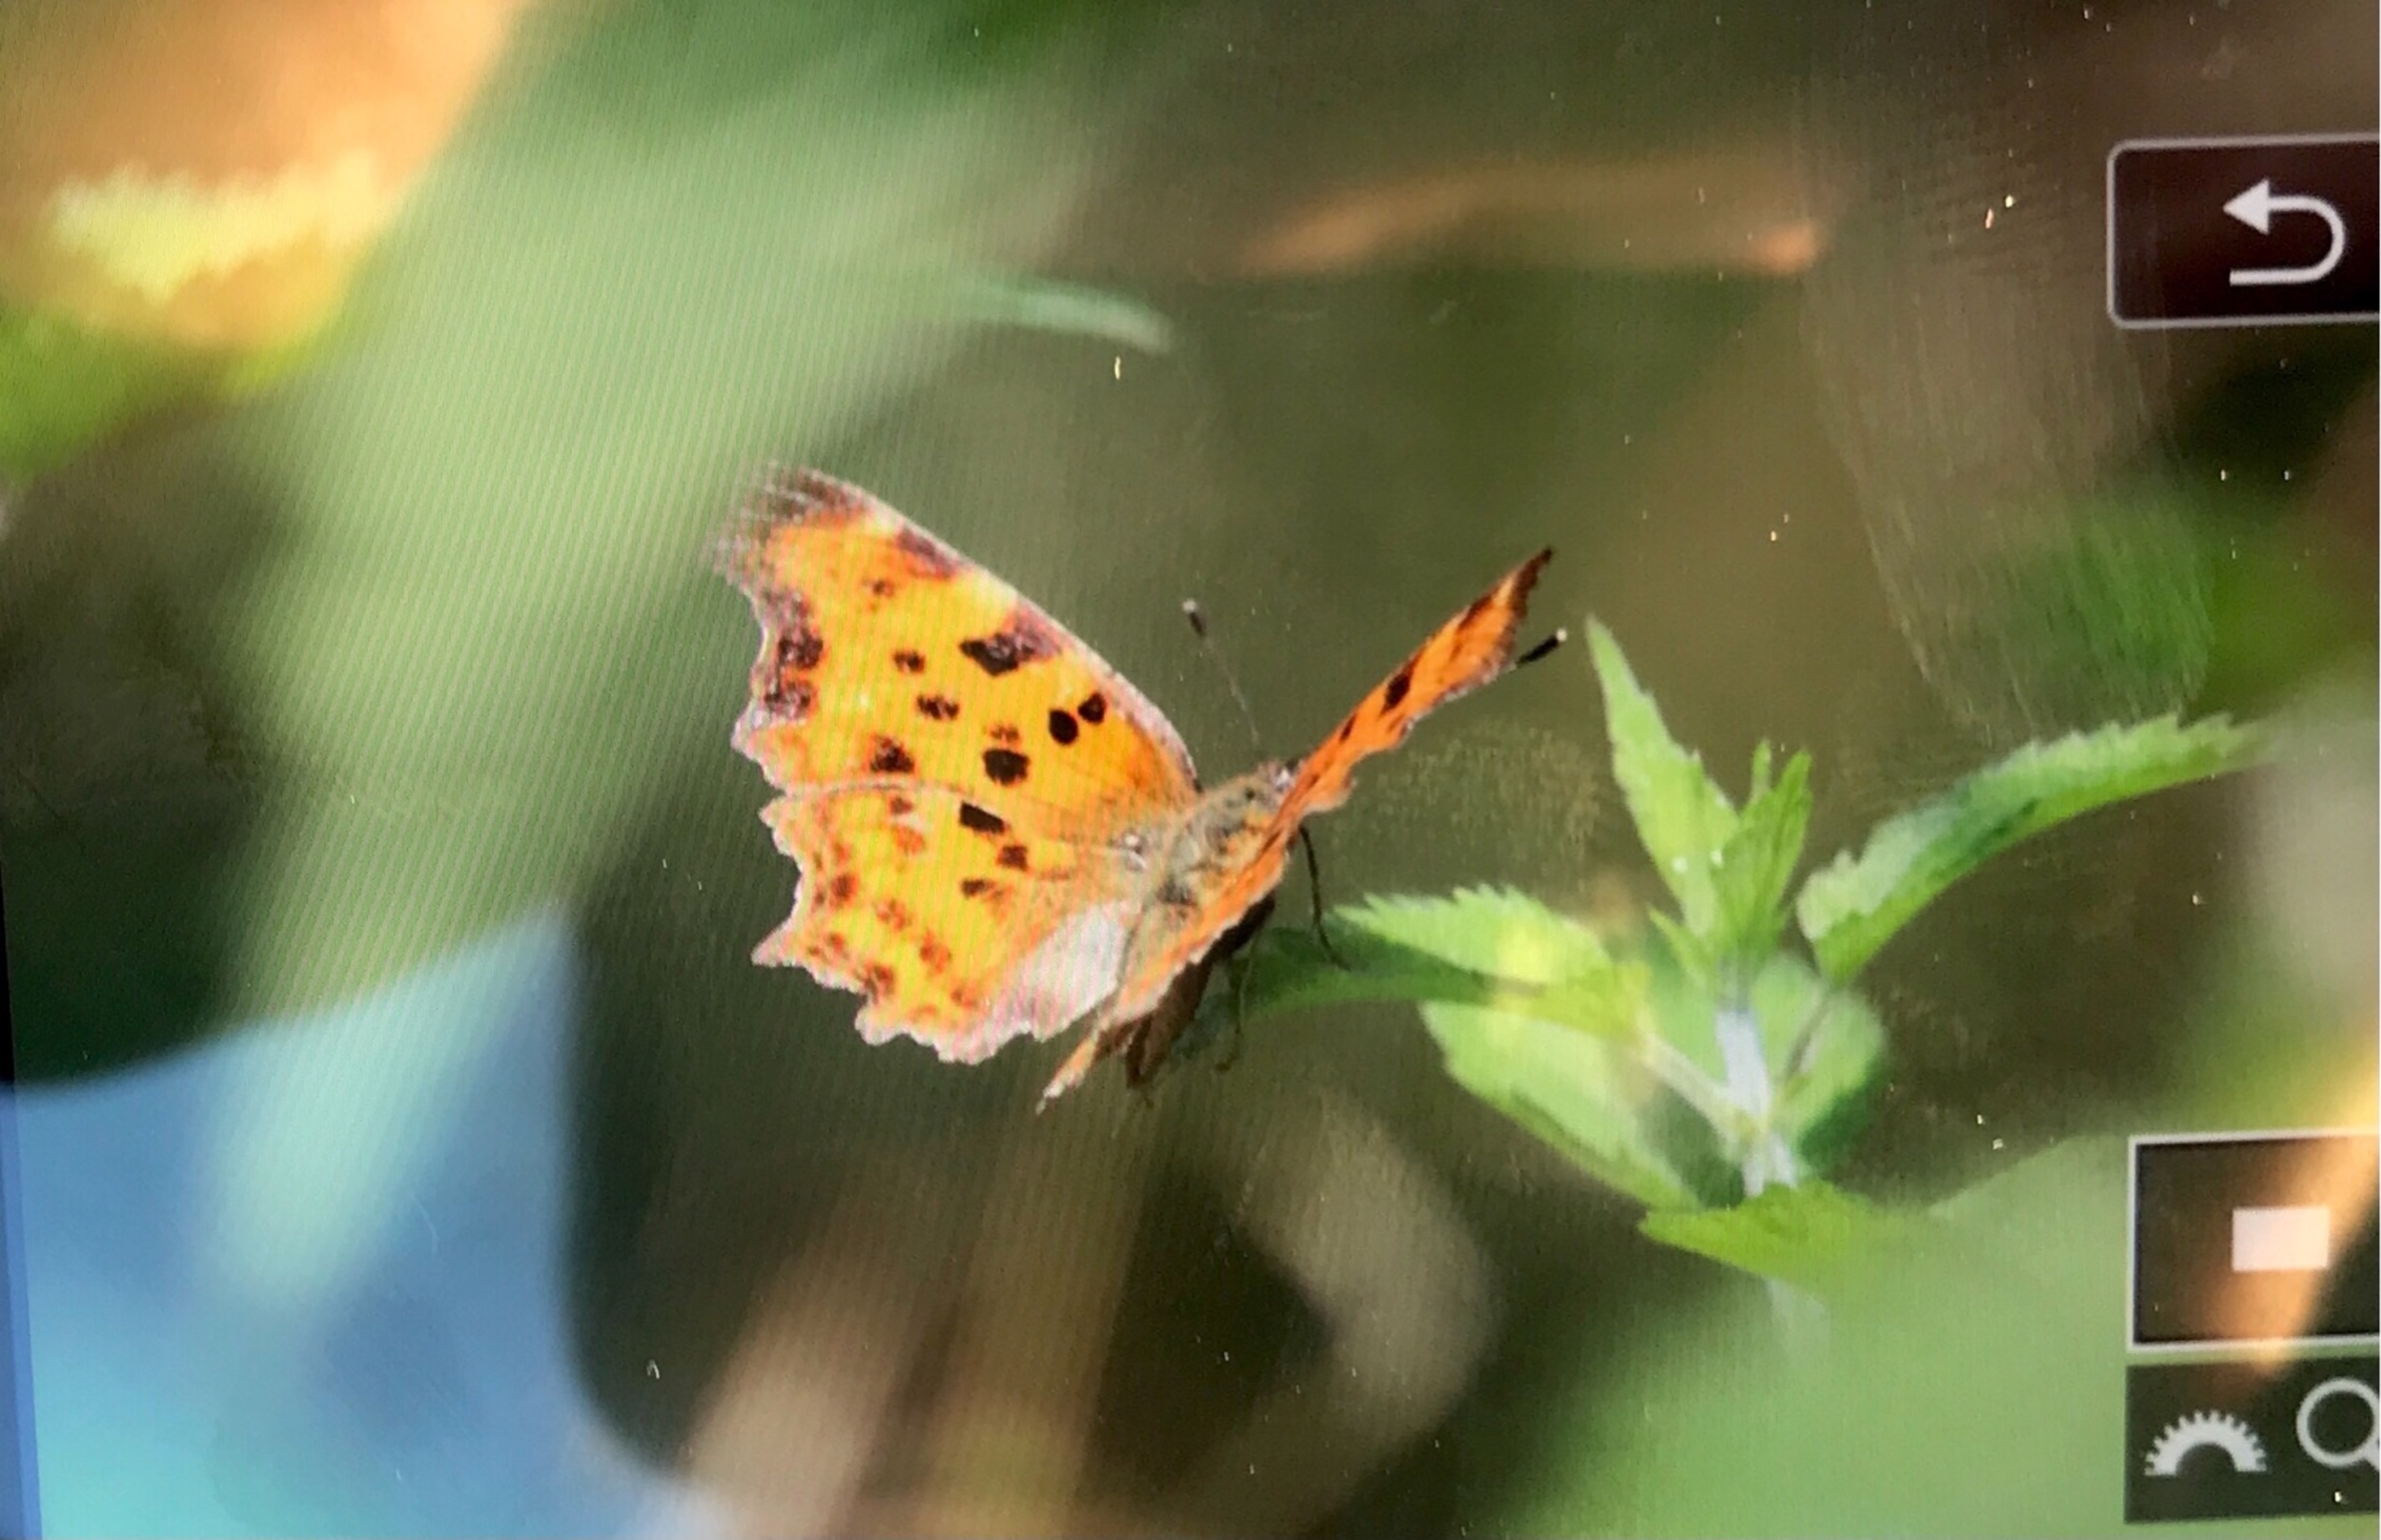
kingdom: Animalia
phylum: Arthropoda
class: Insecta
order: Lepidoptera
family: Nymphalidae
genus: Polygonia
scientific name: Polygonia c-album
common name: Det hvide C
